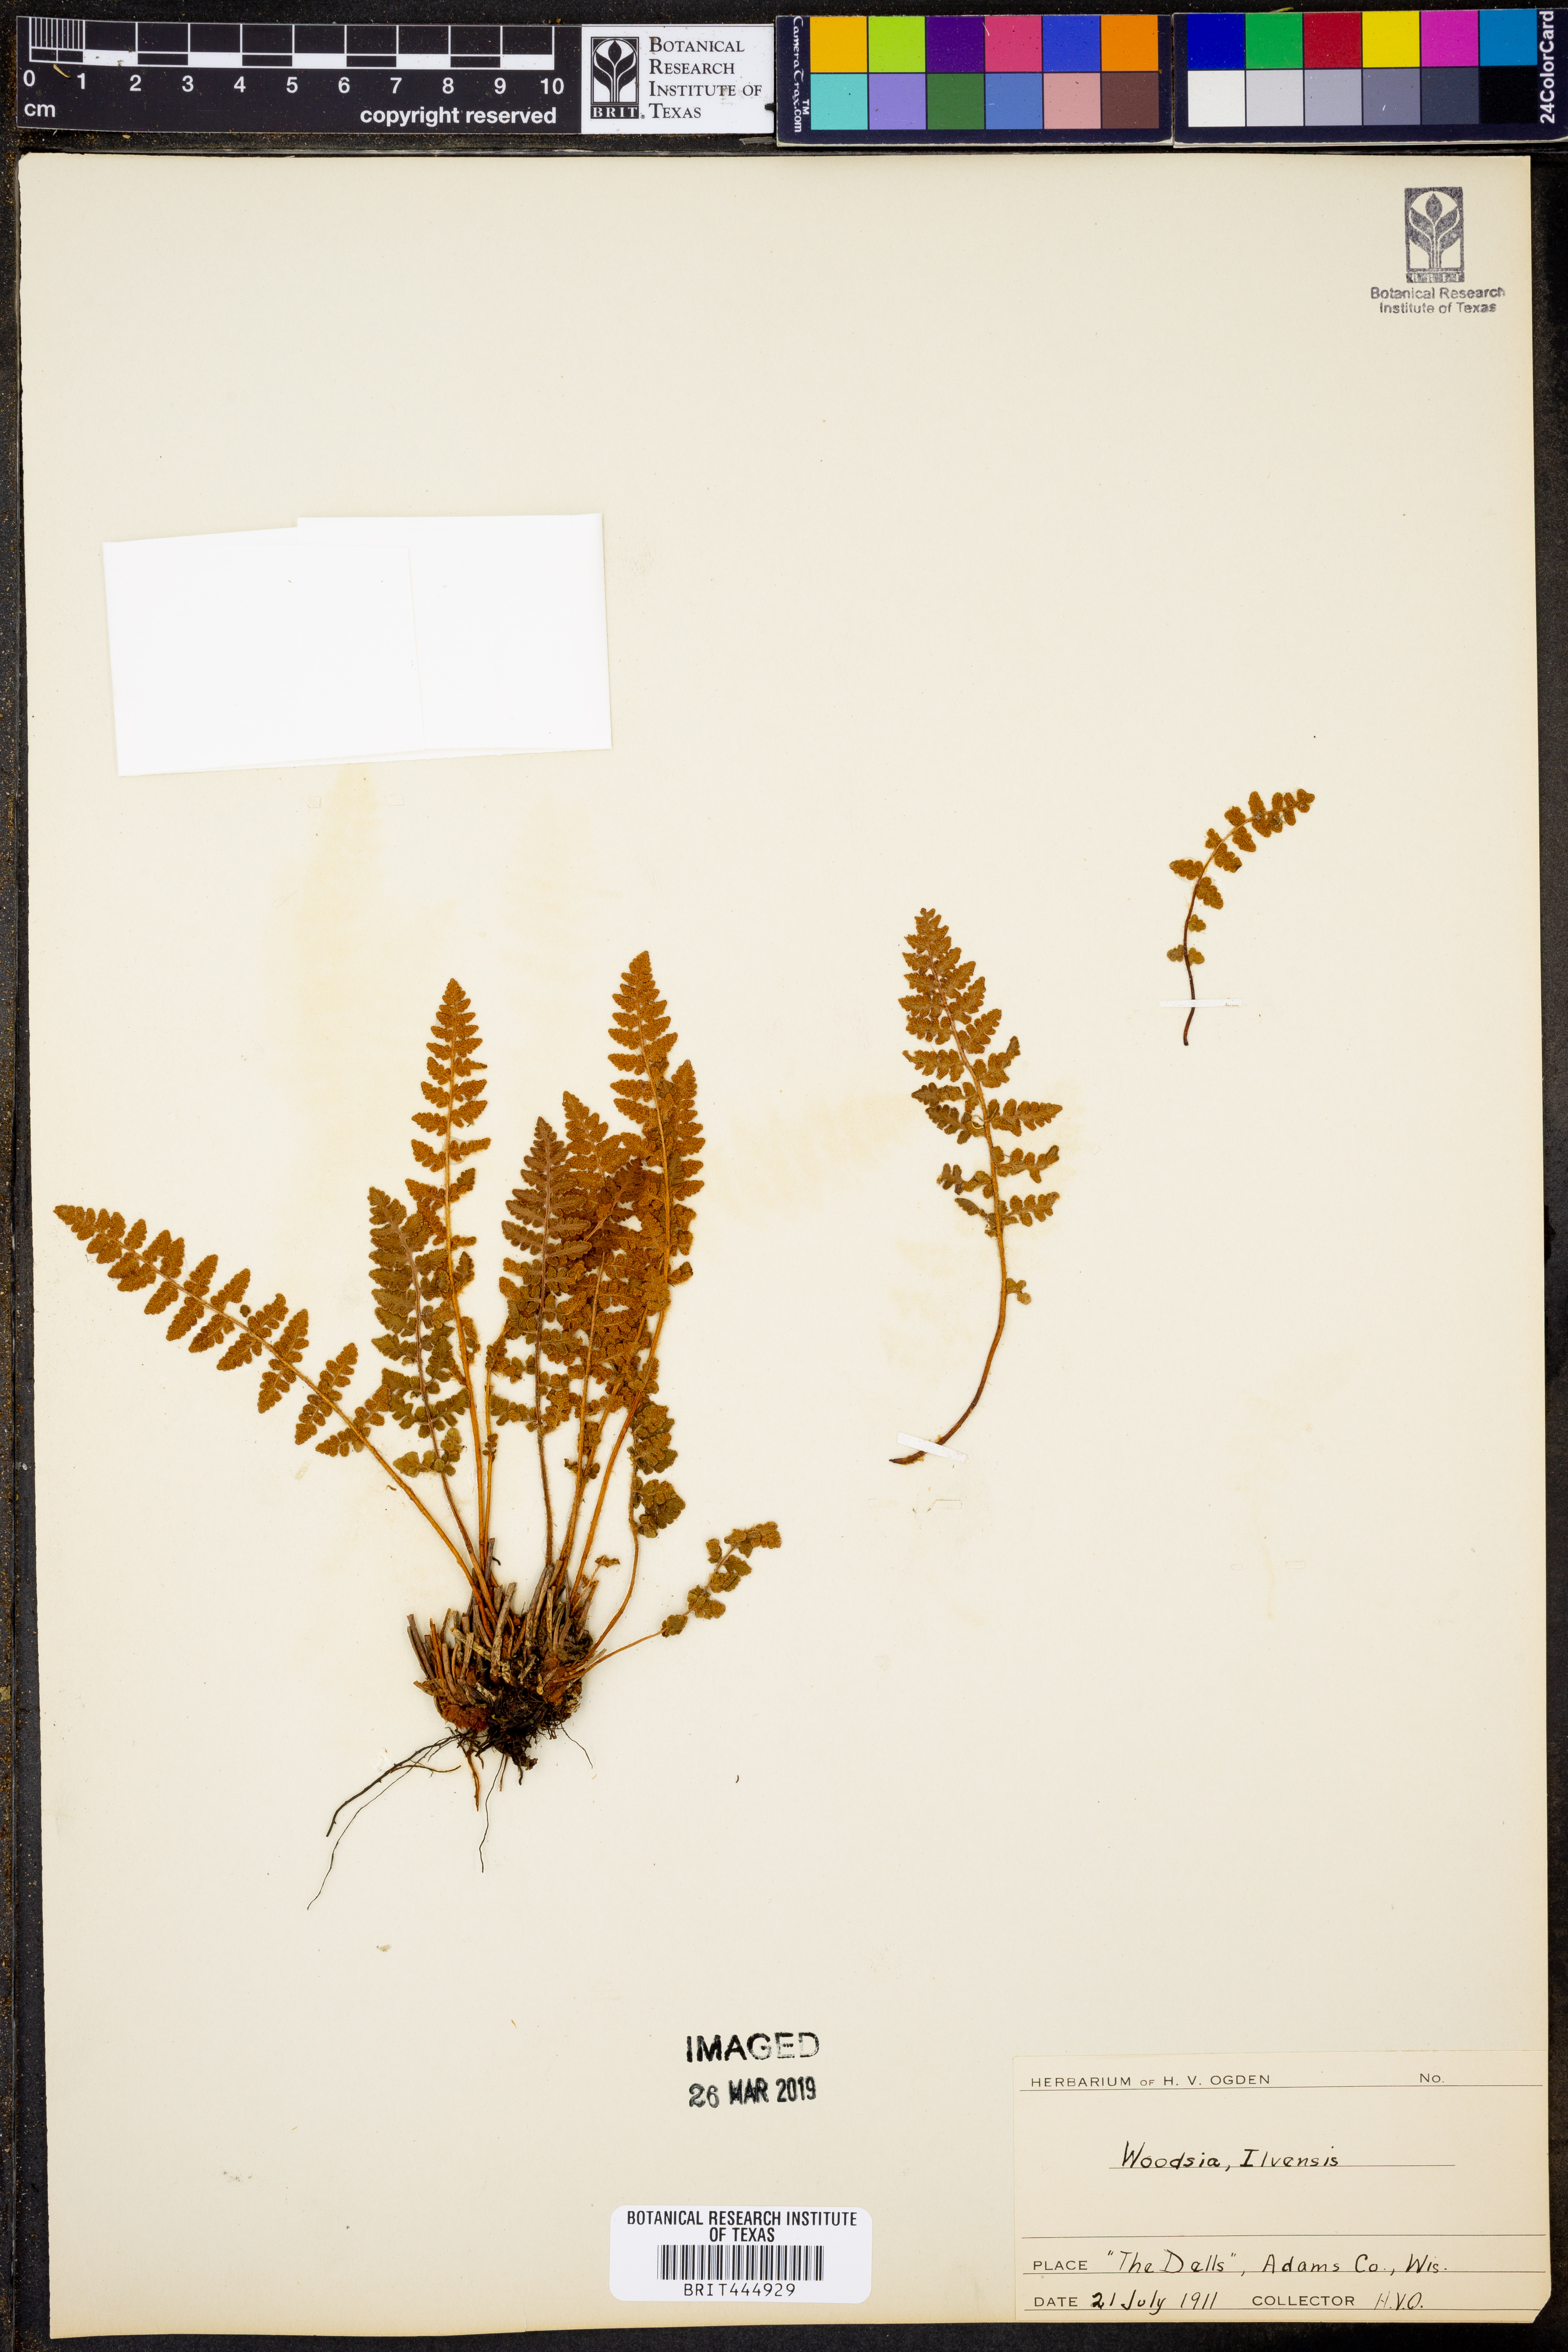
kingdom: Plantae
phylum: Tracheophyta
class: Polypodiopsida
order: Polypodiales
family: Woodsiaceae
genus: Woodsia
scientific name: Woodsia ilvensis
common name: Fragrant woodsia
